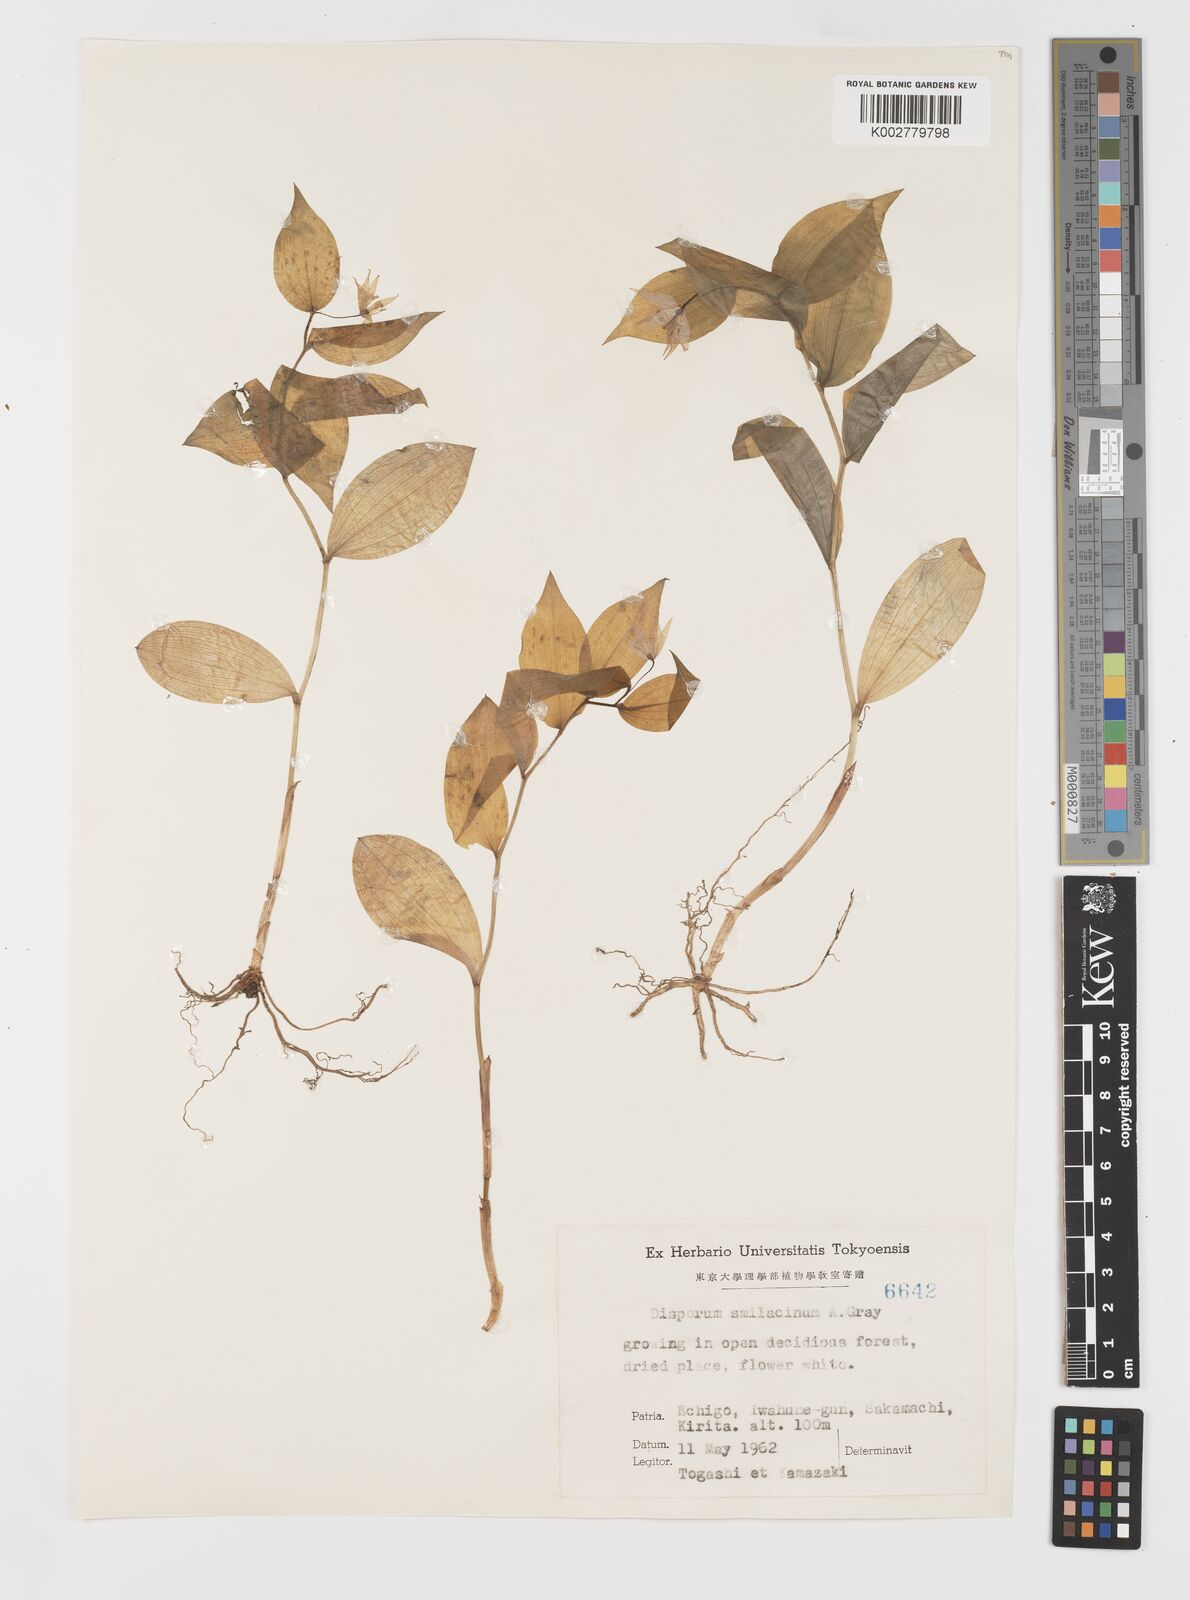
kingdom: Plantae
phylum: Tracheophyta
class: Liliopsida
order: Liliales
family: Colchicaceae
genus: Disporum
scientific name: Disporum smilacinum
